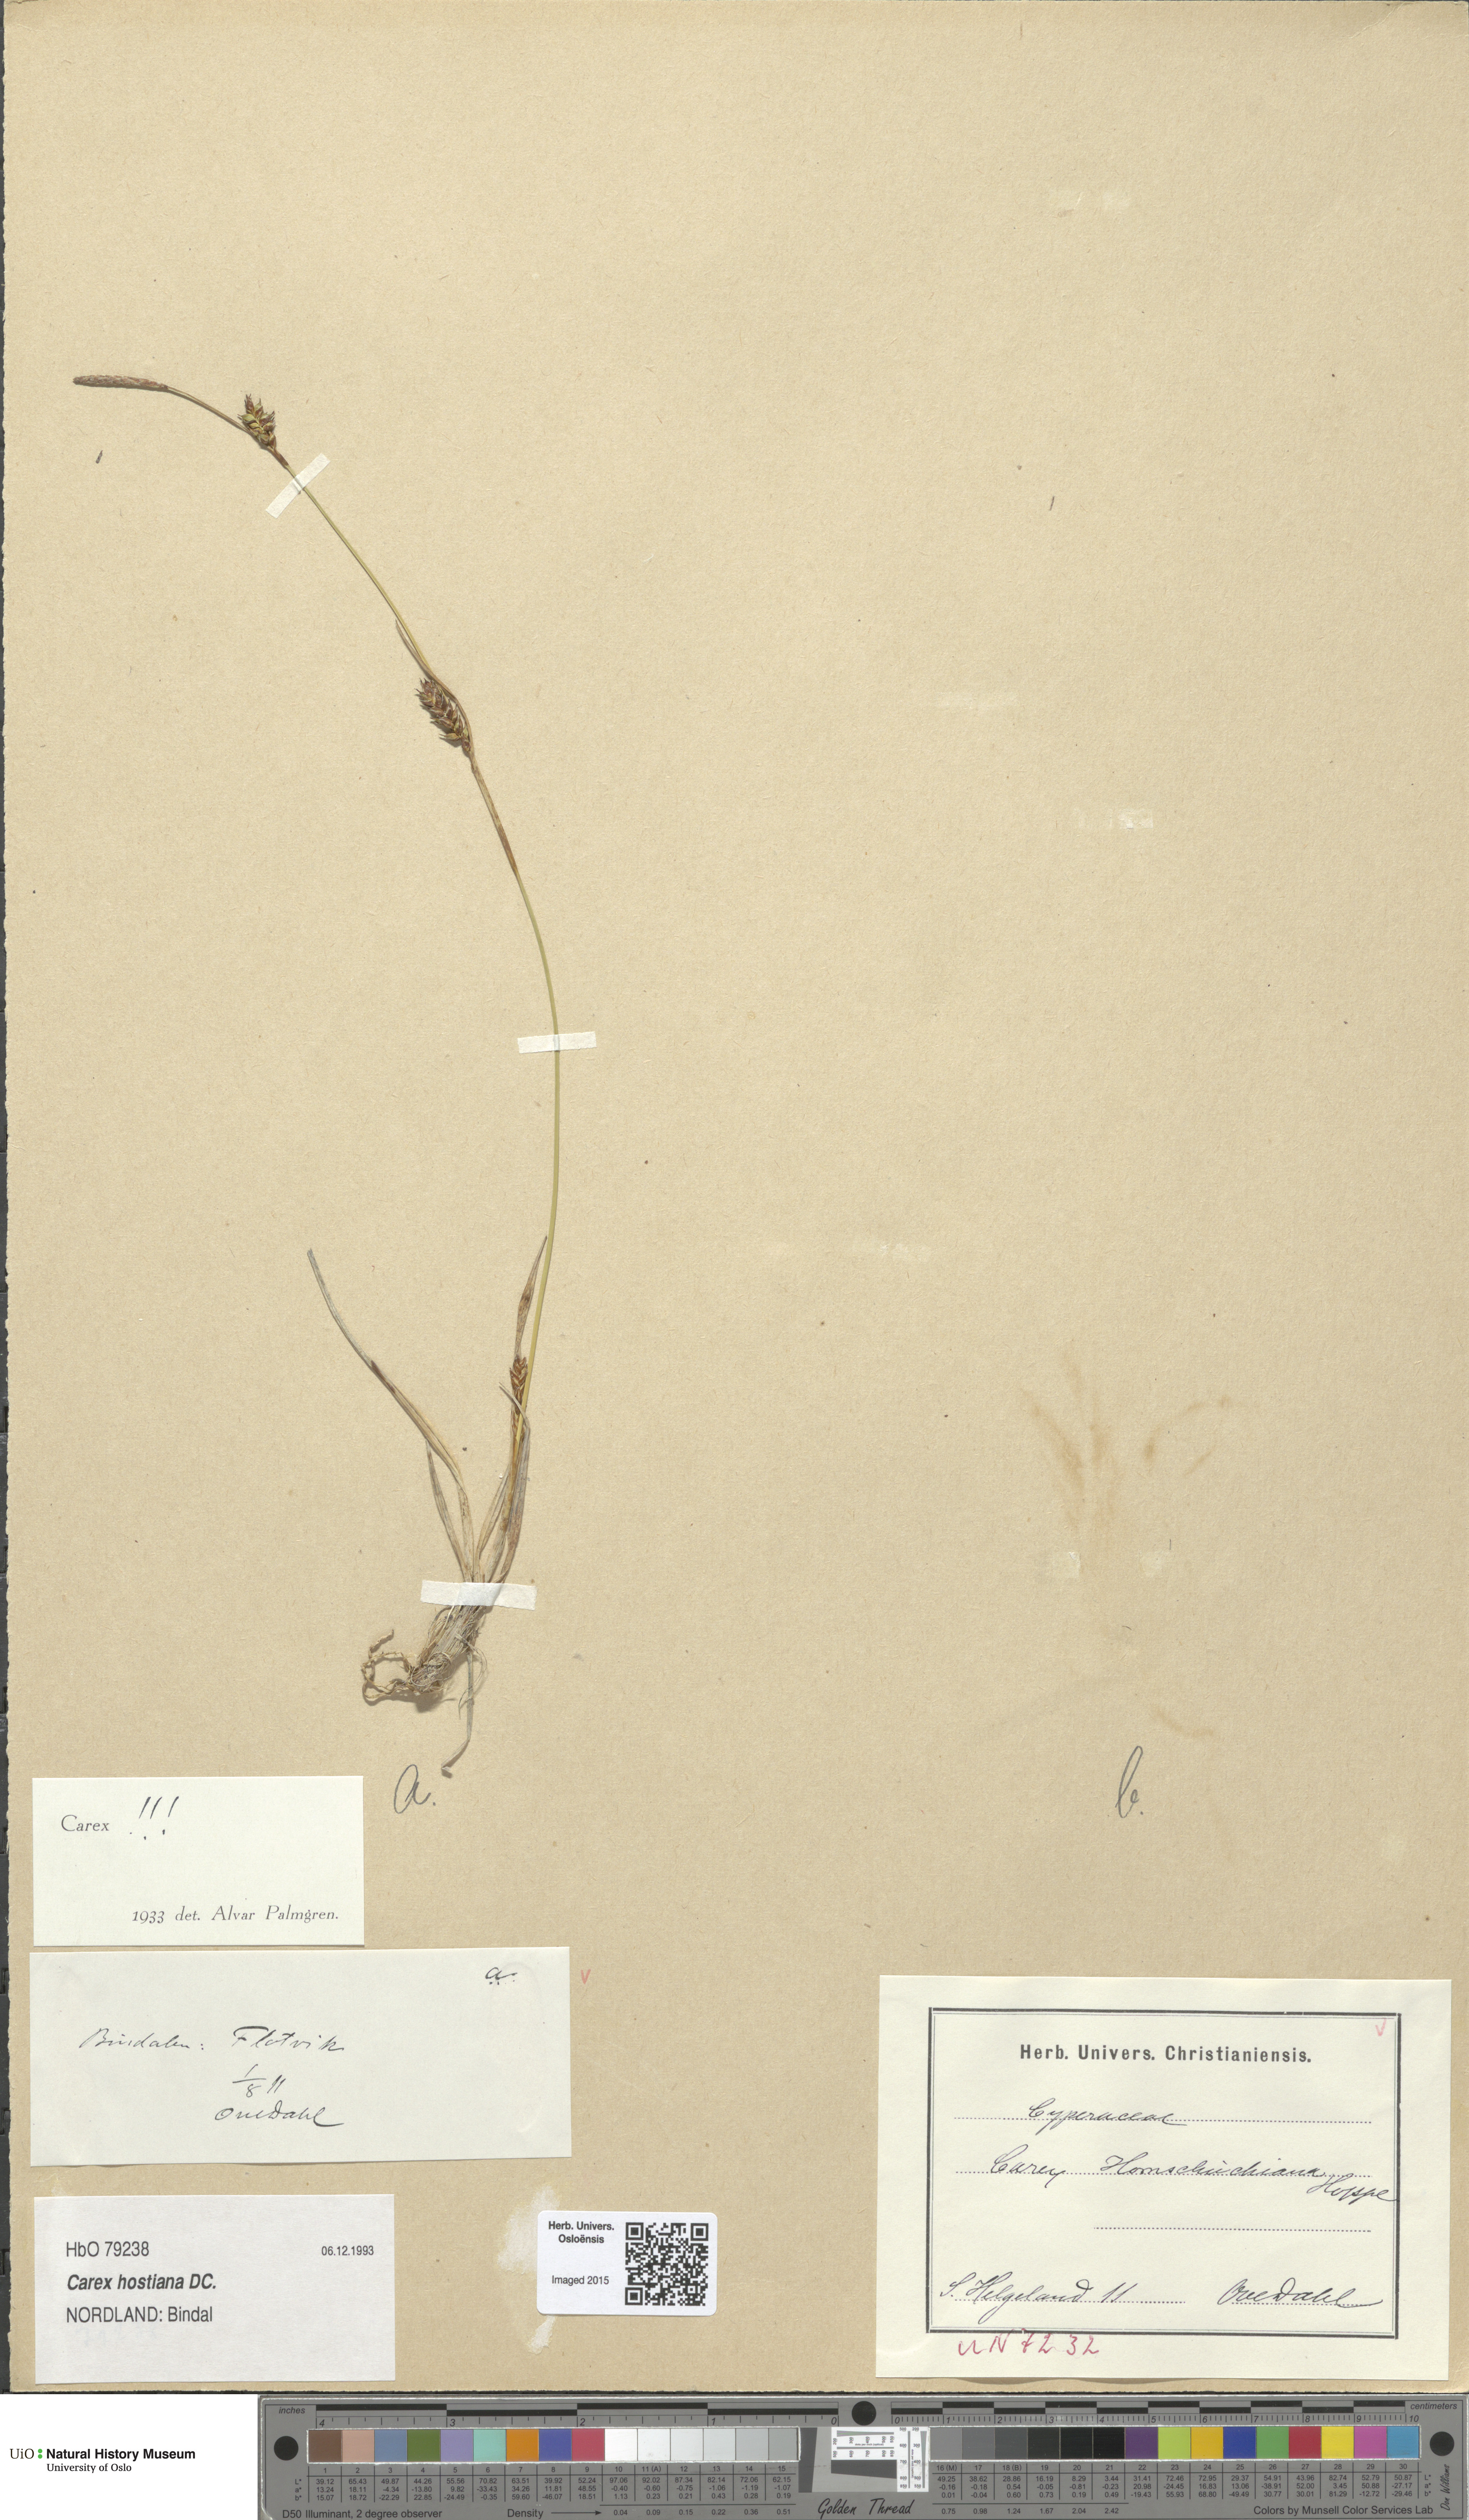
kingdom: Plantae
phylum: Tracheophyta
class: Liliopsida
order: Poales
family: Cyperaceae
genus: Carex
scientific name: Carex hostiana
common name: Tawny sedge
